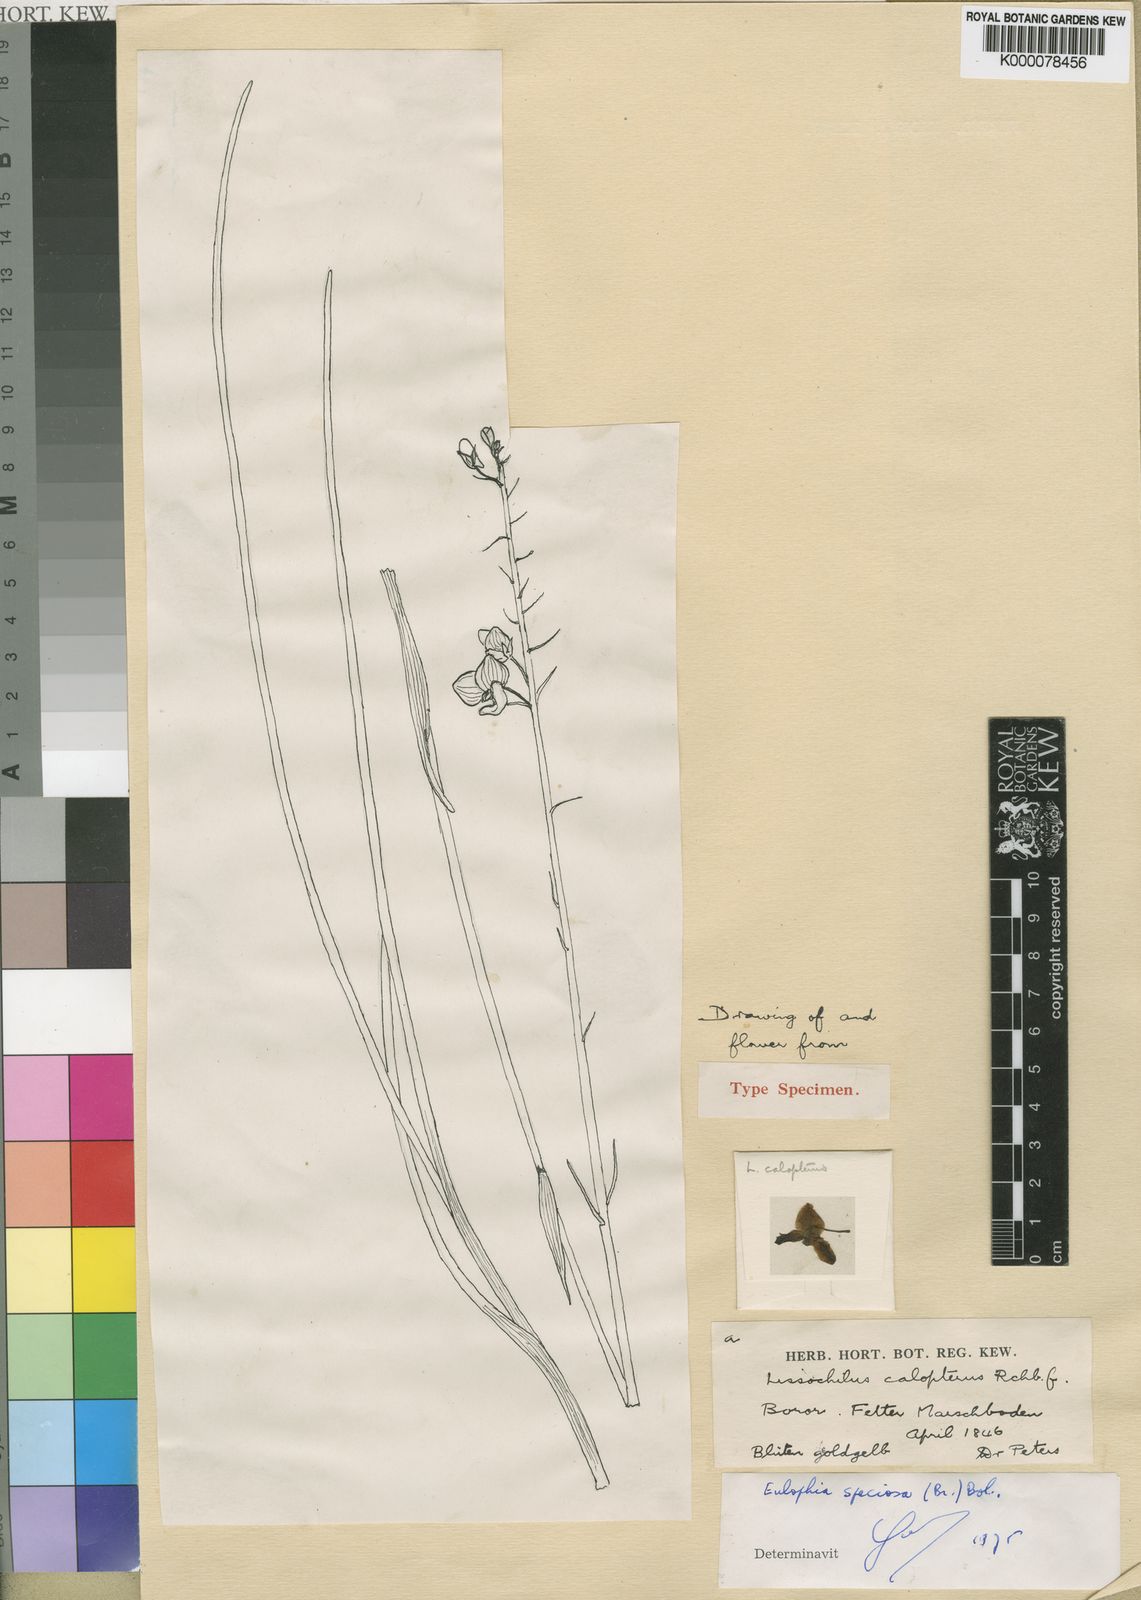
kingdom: Plantae
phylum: Tracheophyta
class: Liliopsida
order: Asparagales
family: Orchidaceae
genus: Eulophia
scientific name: Eulophia speciosa
